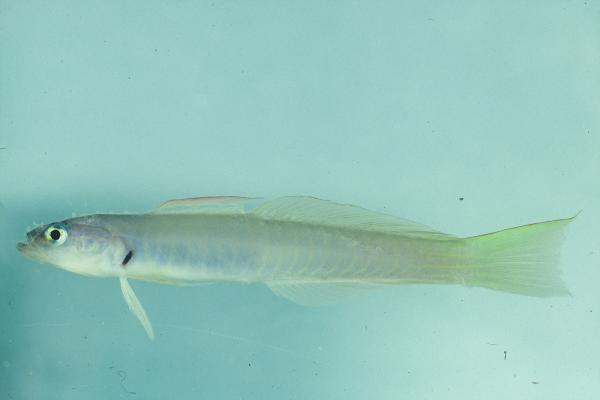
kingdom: Animalia
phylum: Chordata
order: Perciformes
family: Microdesmidae
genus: Ptereleotris
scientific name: Ptereleotris microlepis
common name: Blue gudgeon
